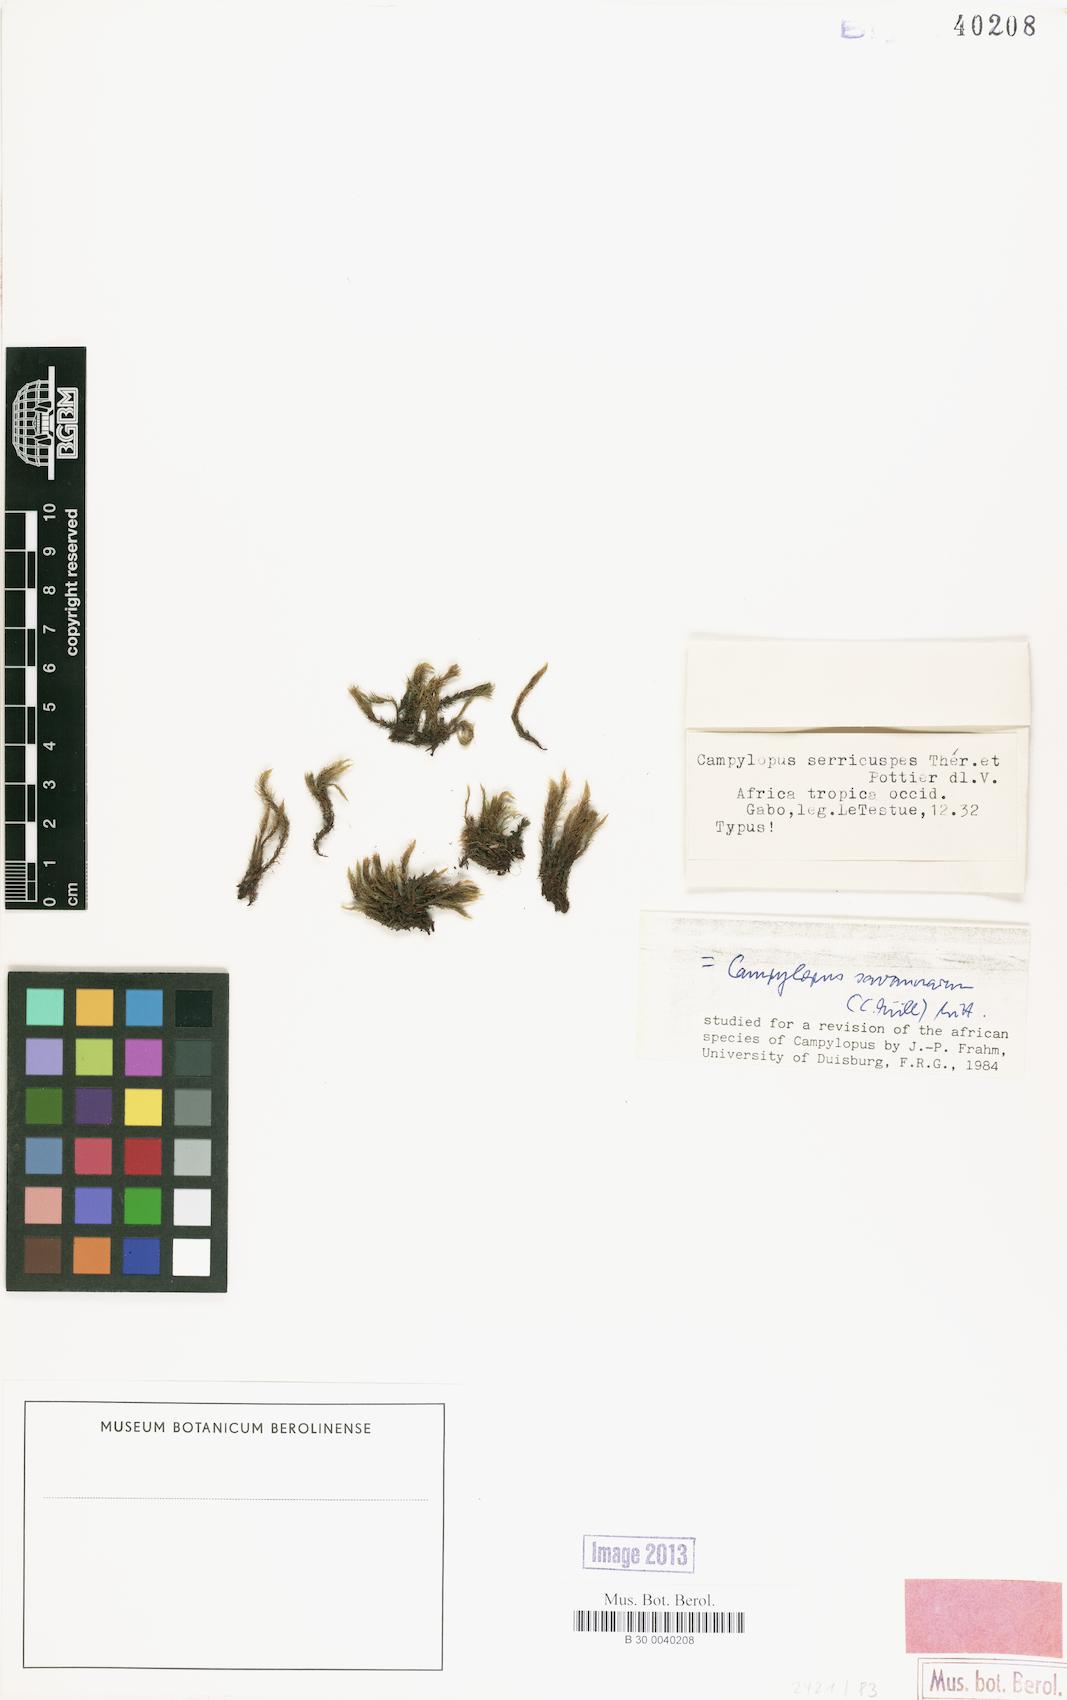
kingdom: Plantae
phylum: Bryophyta
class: Bryopsida
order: Dicranales
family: Leucobryaceae
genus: Campylopus
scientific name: Campylopus savannarum
